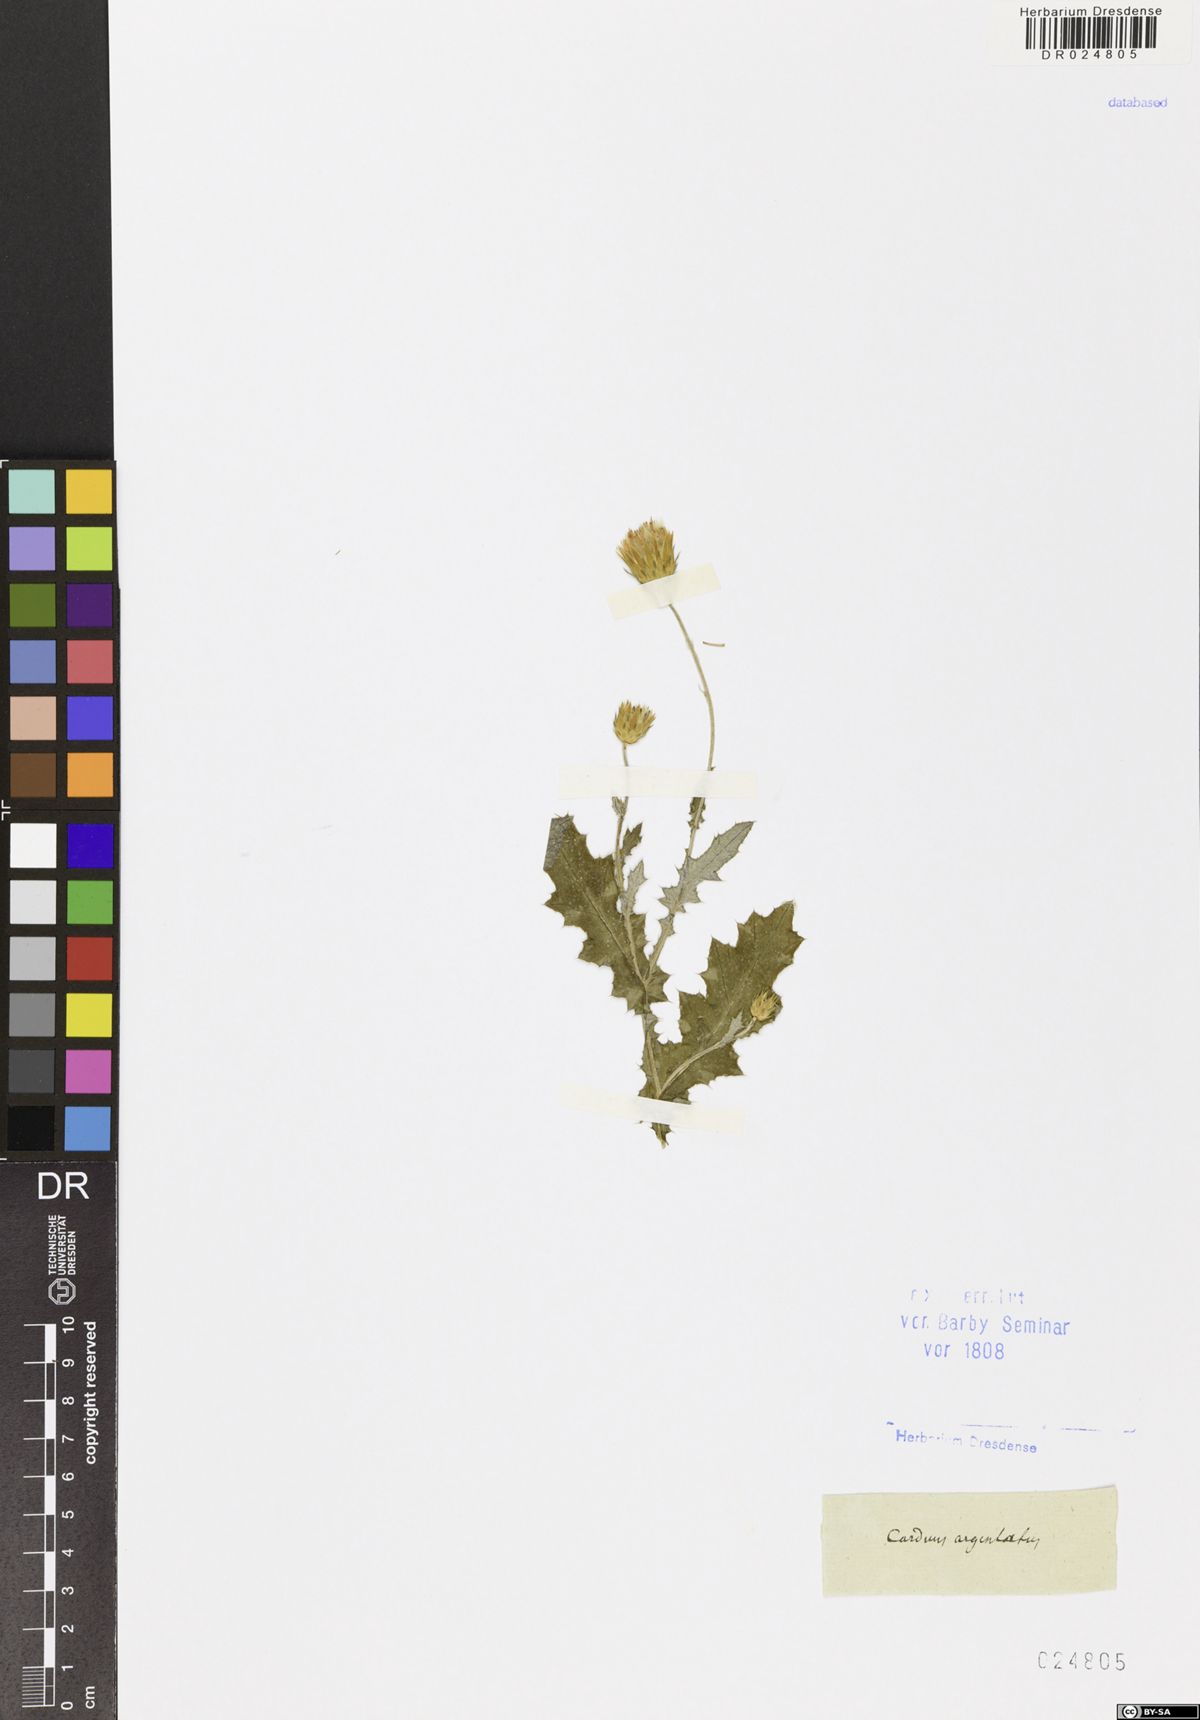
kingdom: Plantae
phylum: Tracheophyta
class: Magnoliopsida
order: Asterales
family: Asteraceae
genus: Carduus
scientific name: Carduus argentatus
